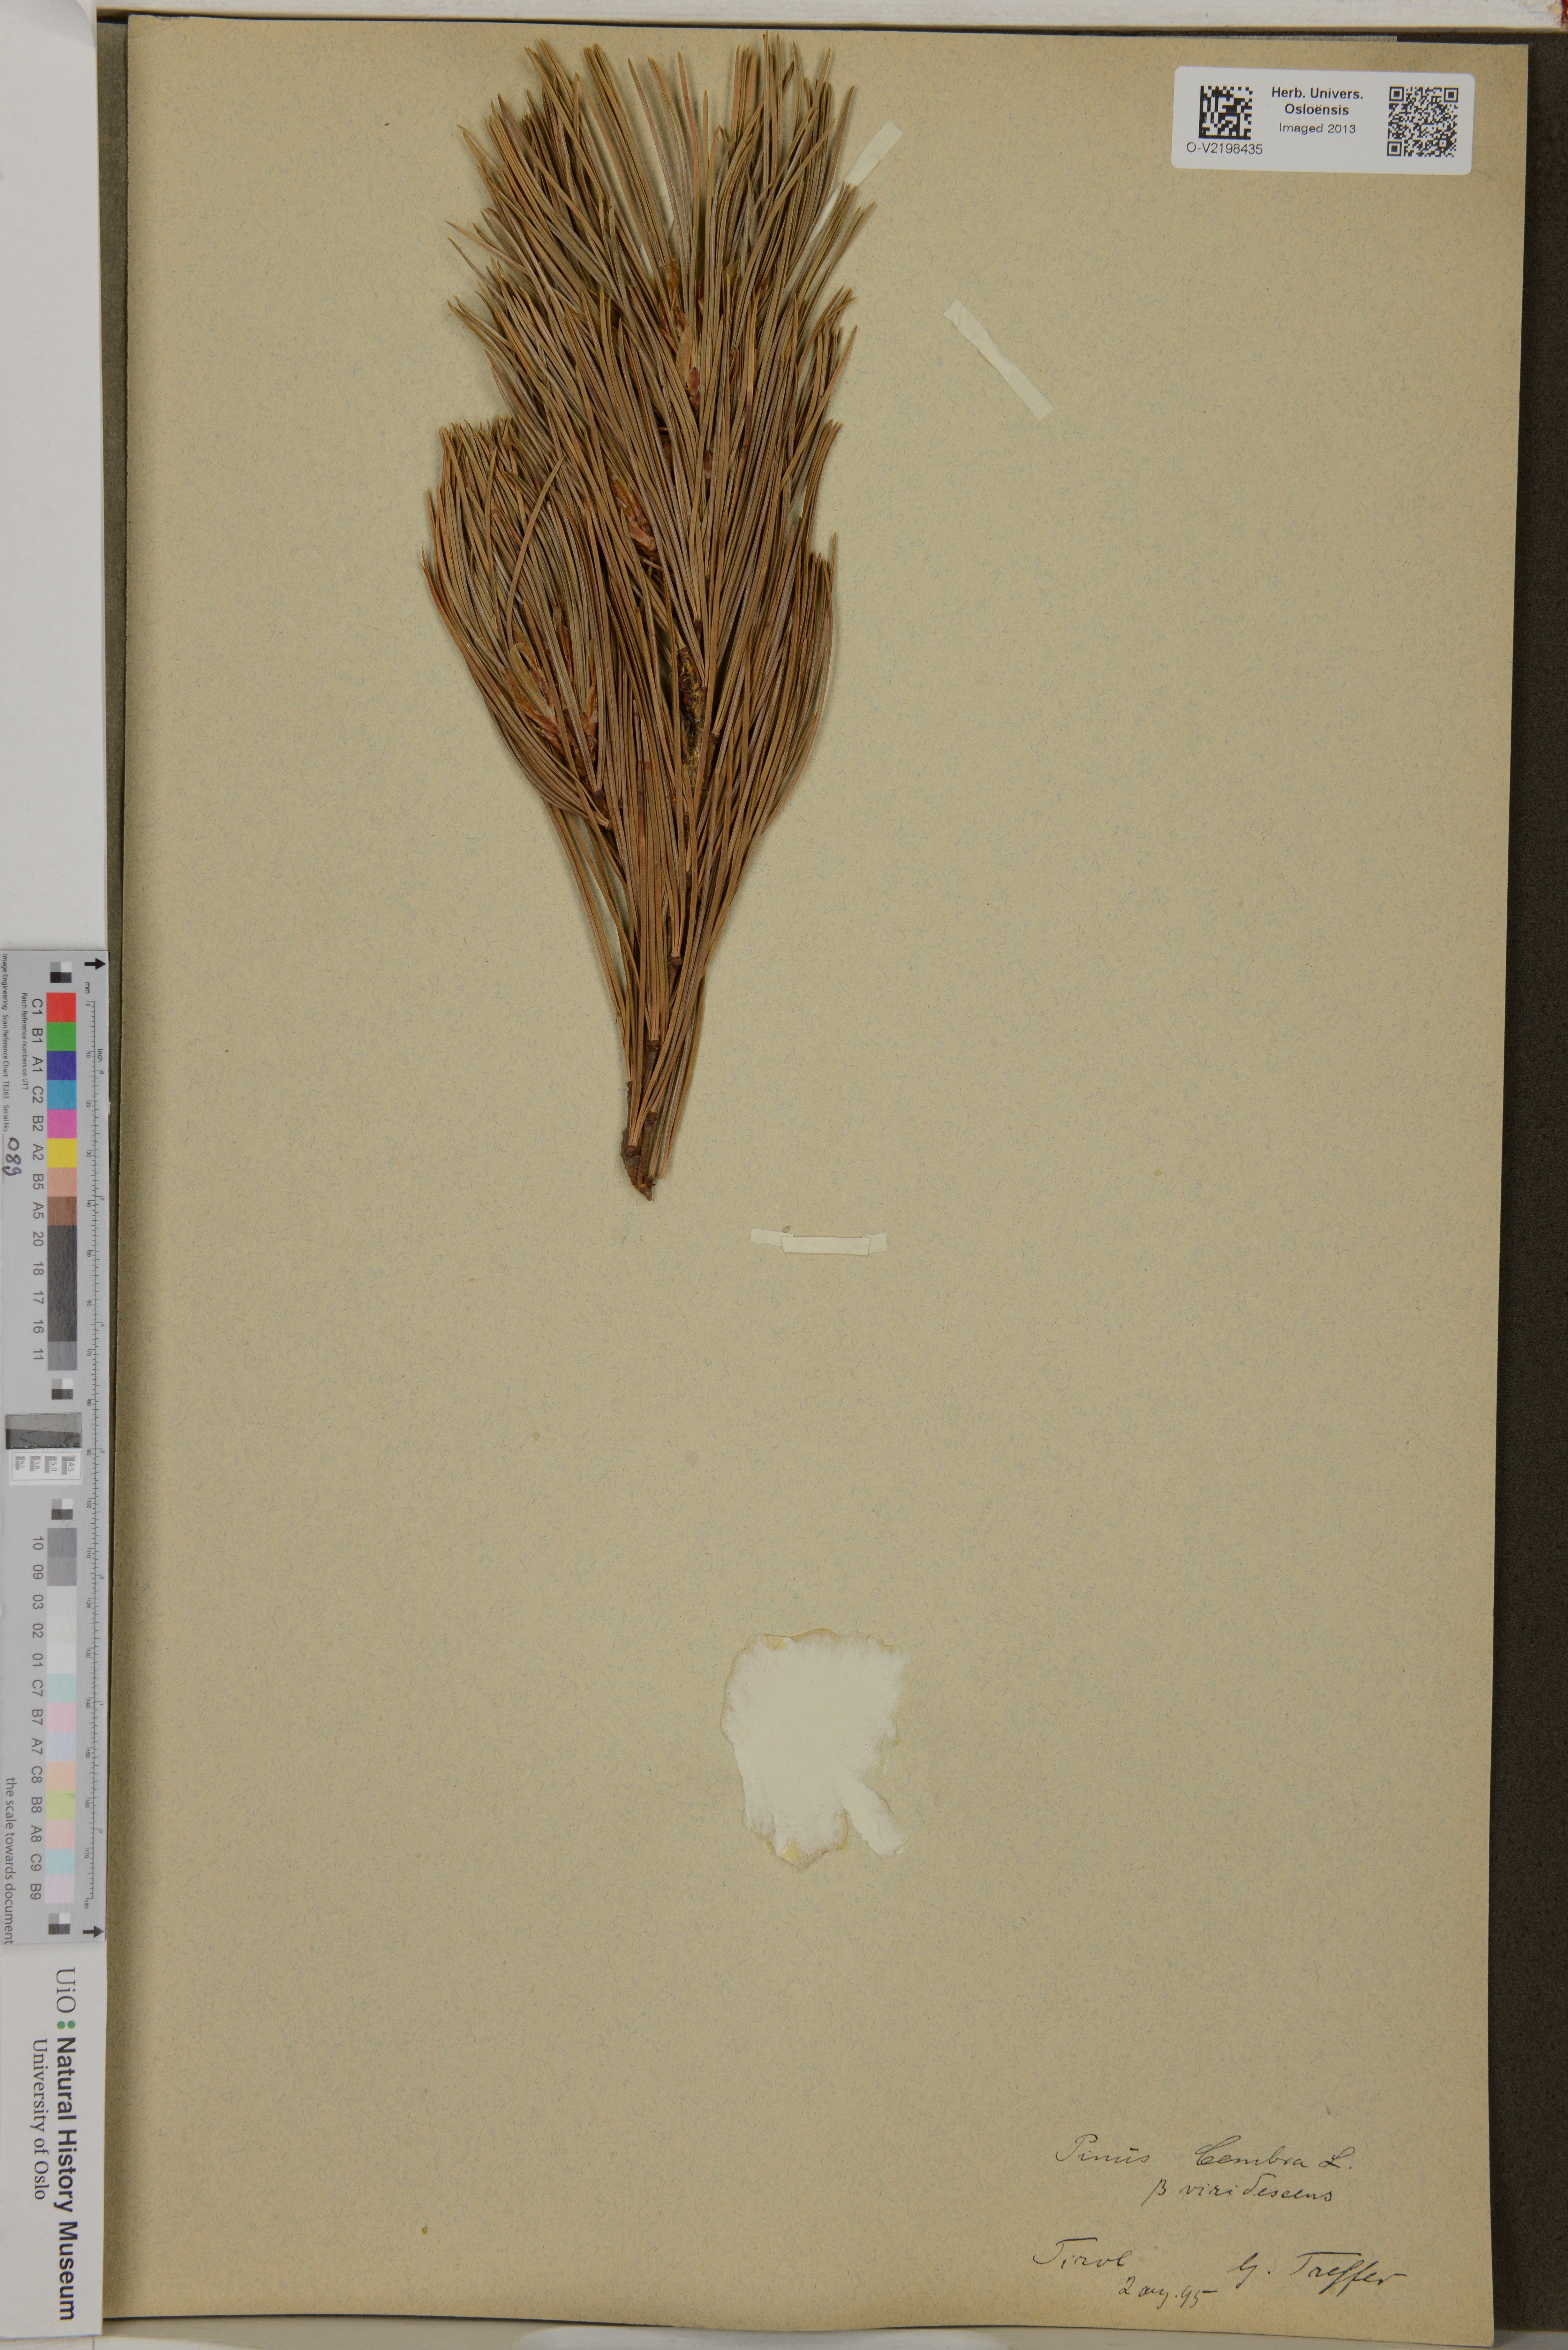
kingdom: Plantae
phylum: Tracheophyta
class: Pinopsida
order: Pinales
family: Pinaceae
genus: Pinus
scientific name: Pinus cembra
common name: Arolla pine
